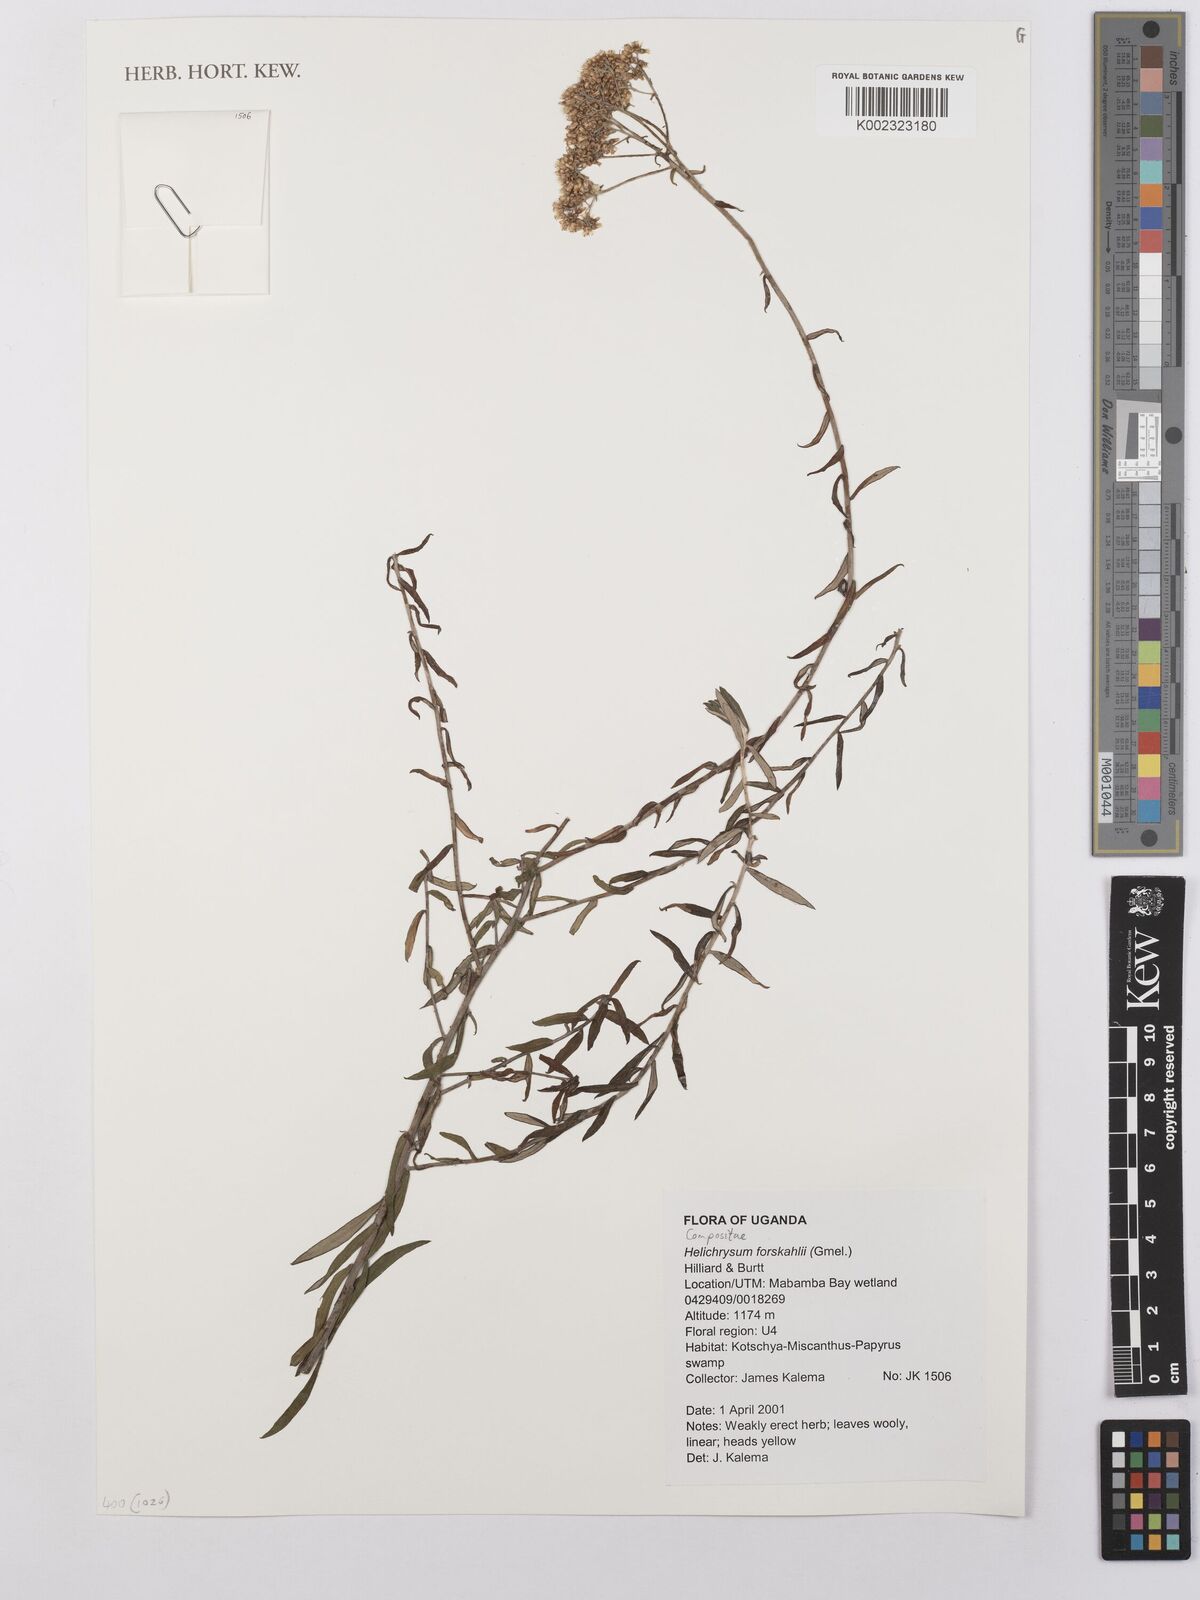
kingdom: Plantae
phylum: Tracheophyta
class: Magnoliopsida
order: Asterales
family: Asteraceae
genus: Helichrysum
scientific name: Helichrysum forskahlii
